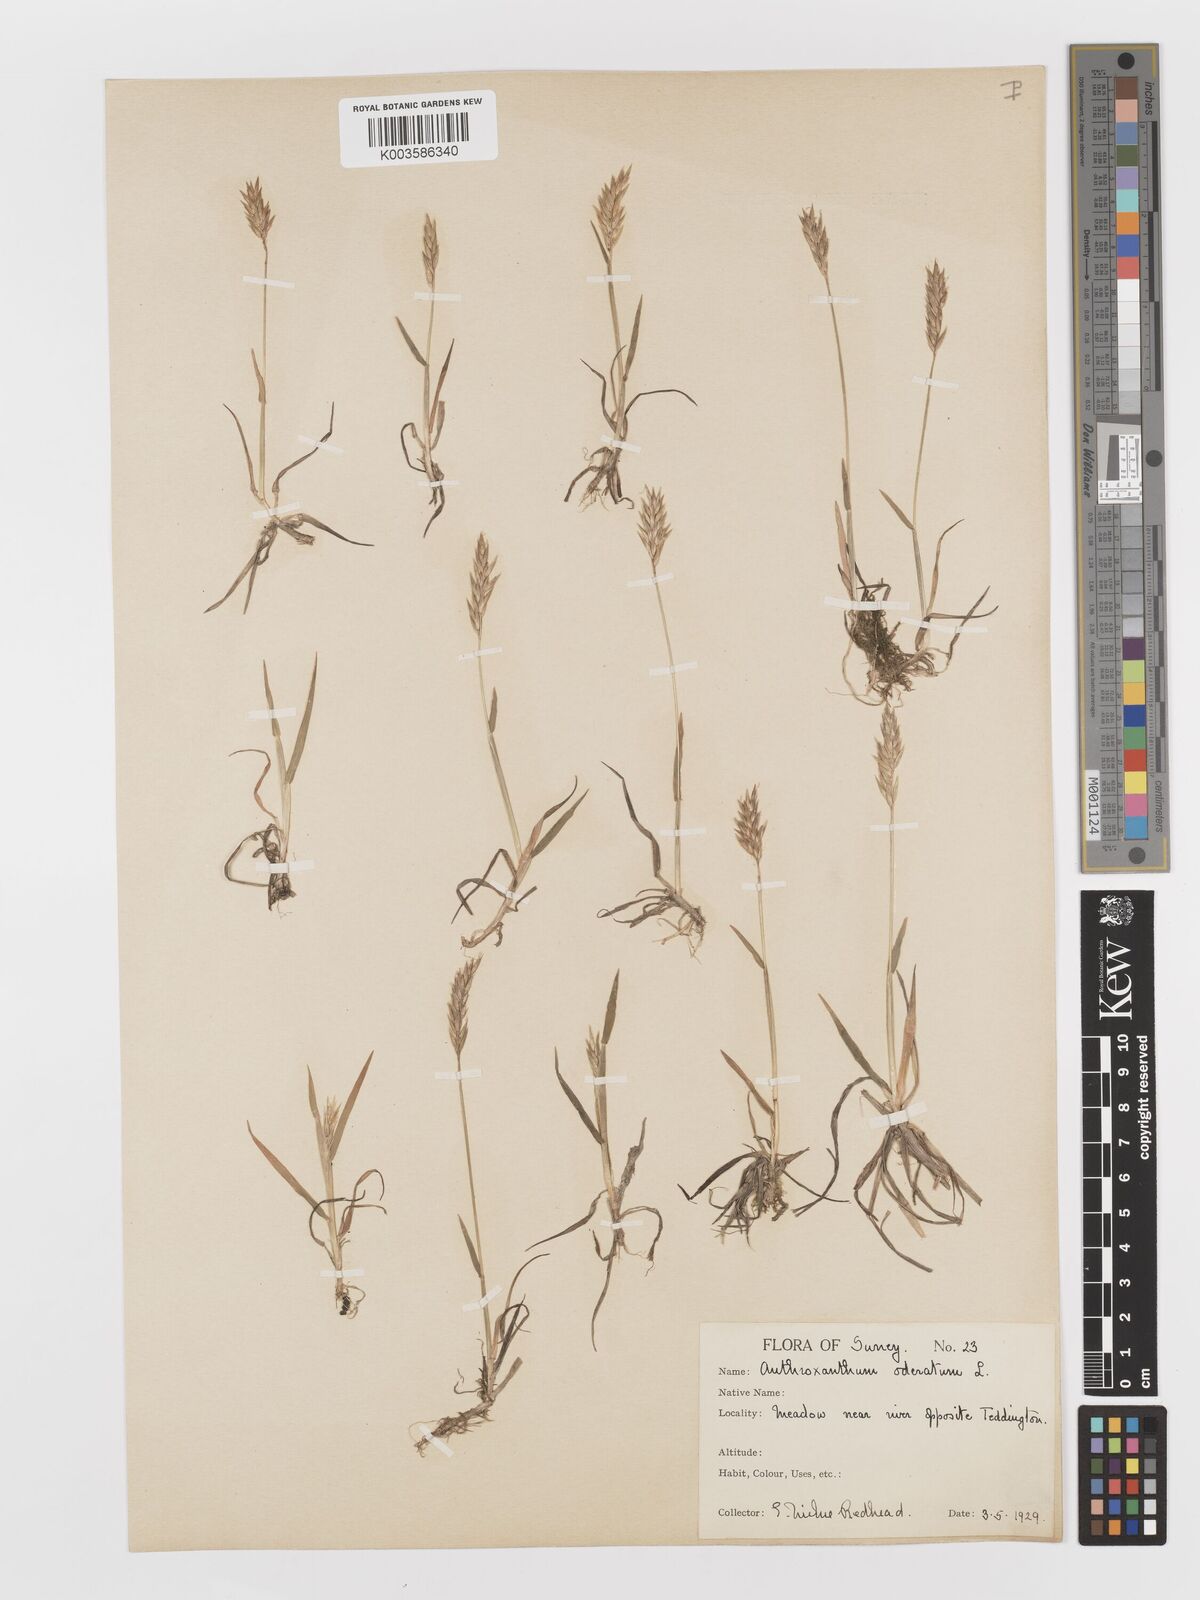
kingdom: Plantae
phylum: Tracheophyta
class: Liliopsida
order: Poales
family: Poaceae
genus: Anthoxanthum
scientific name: Anthoxanthum odoratum
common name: Sweet vernalgrass
